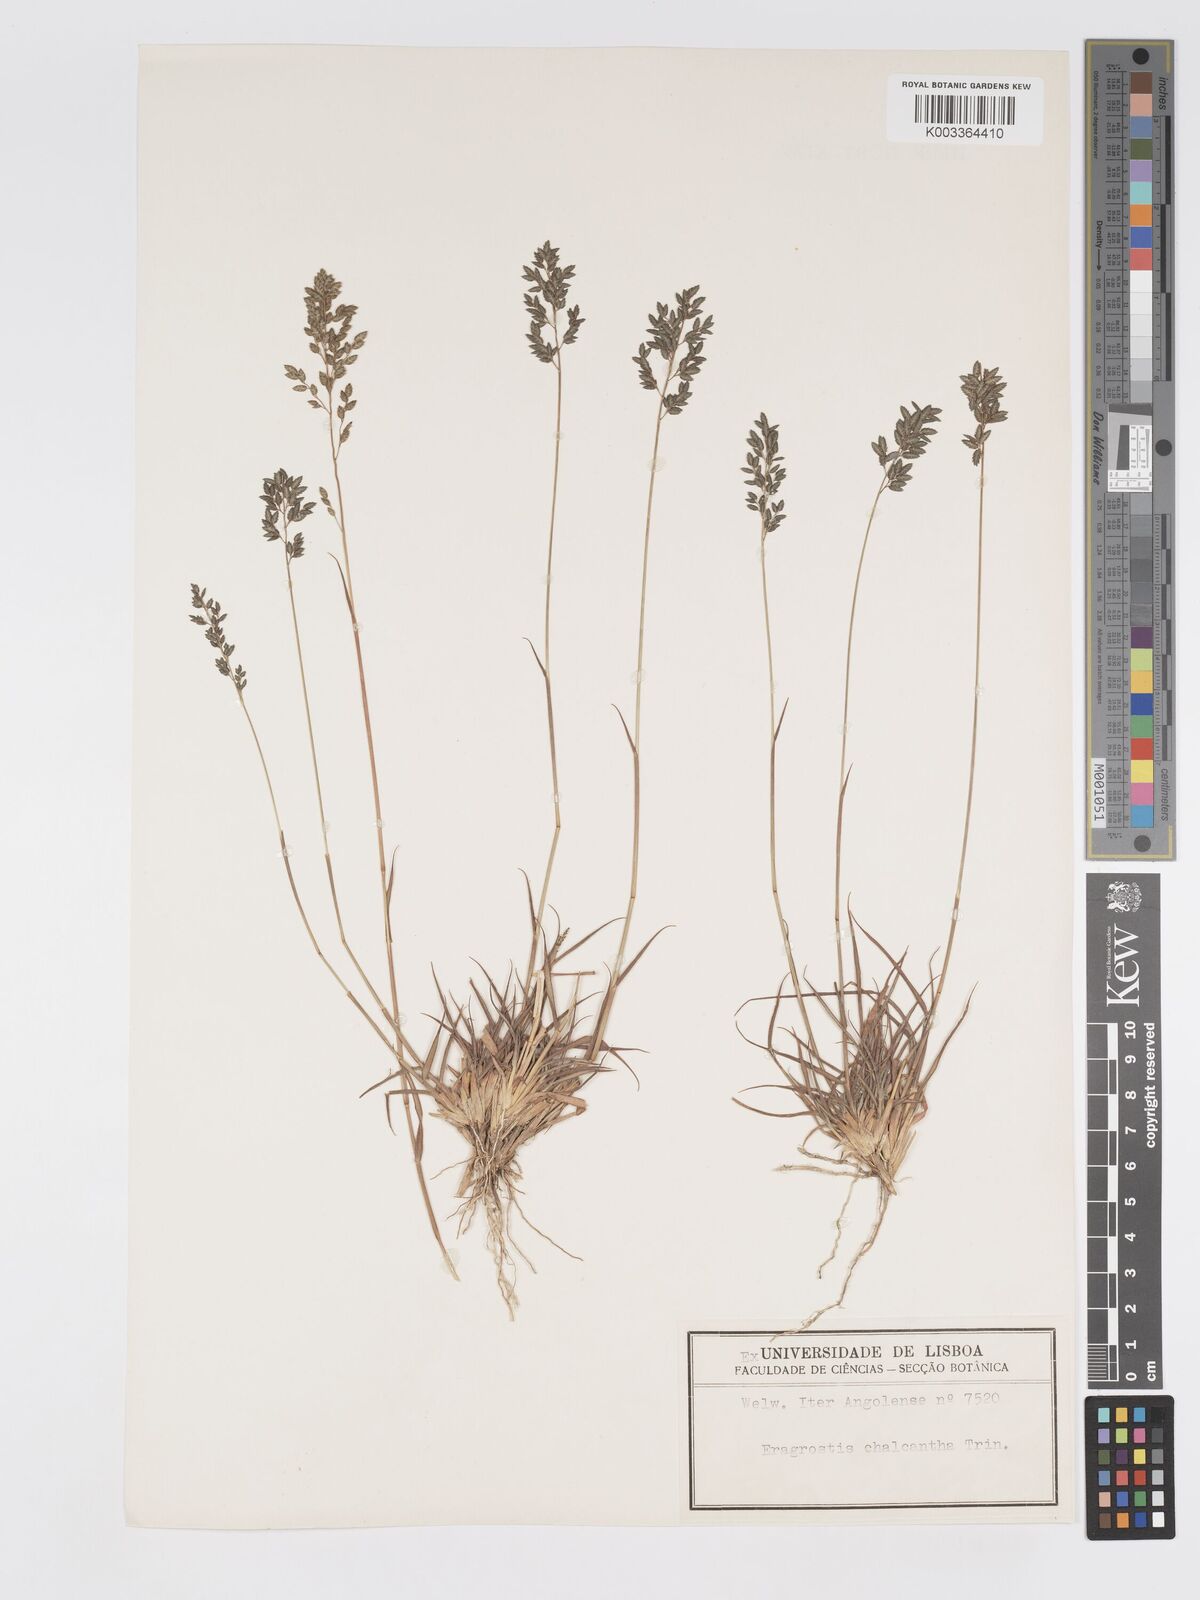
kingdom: Plantae
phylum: Tracheophyta
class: Liliopsida
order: Poales
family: Poaceae
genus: Eragrostis
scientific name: Eragrostis racemosa
